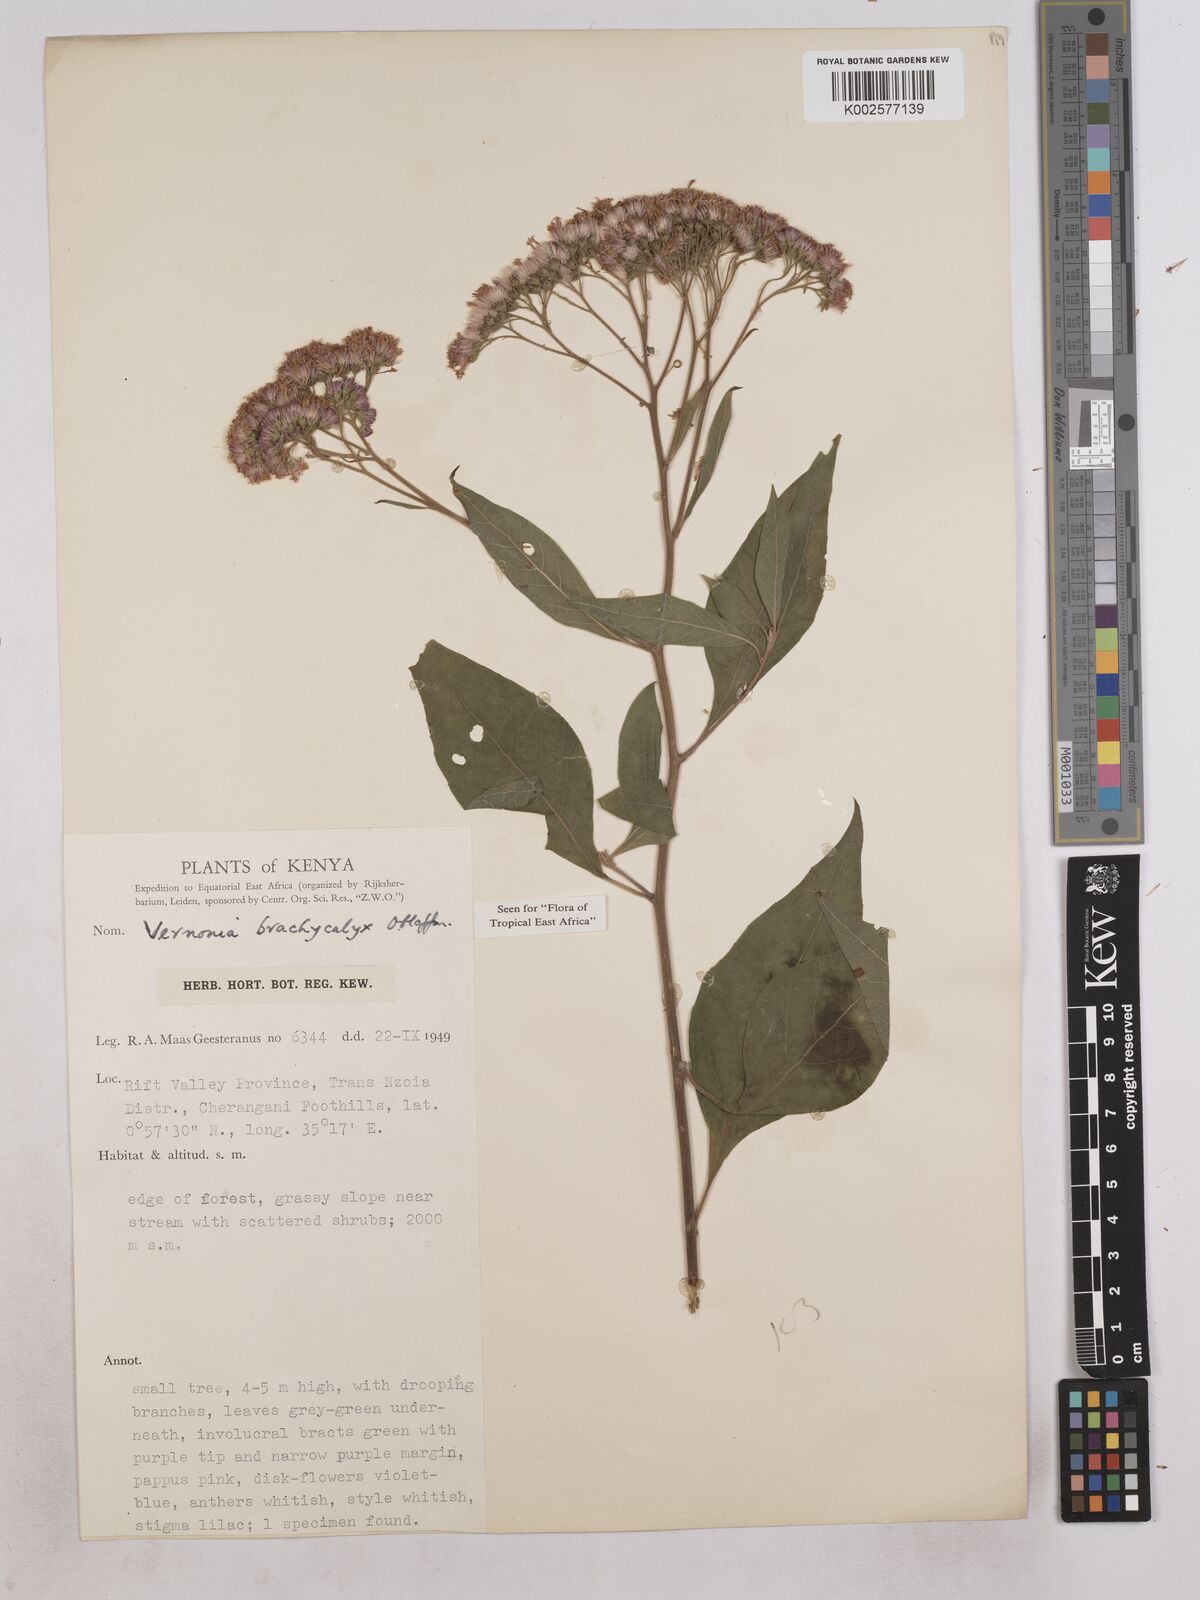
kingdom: Plantae
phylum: Tracheophyta
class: Magnoliopsida
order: Asterales
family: Asteraceae
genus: Hoffmannanthus
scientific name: Hoffmannanthus abbotianus
